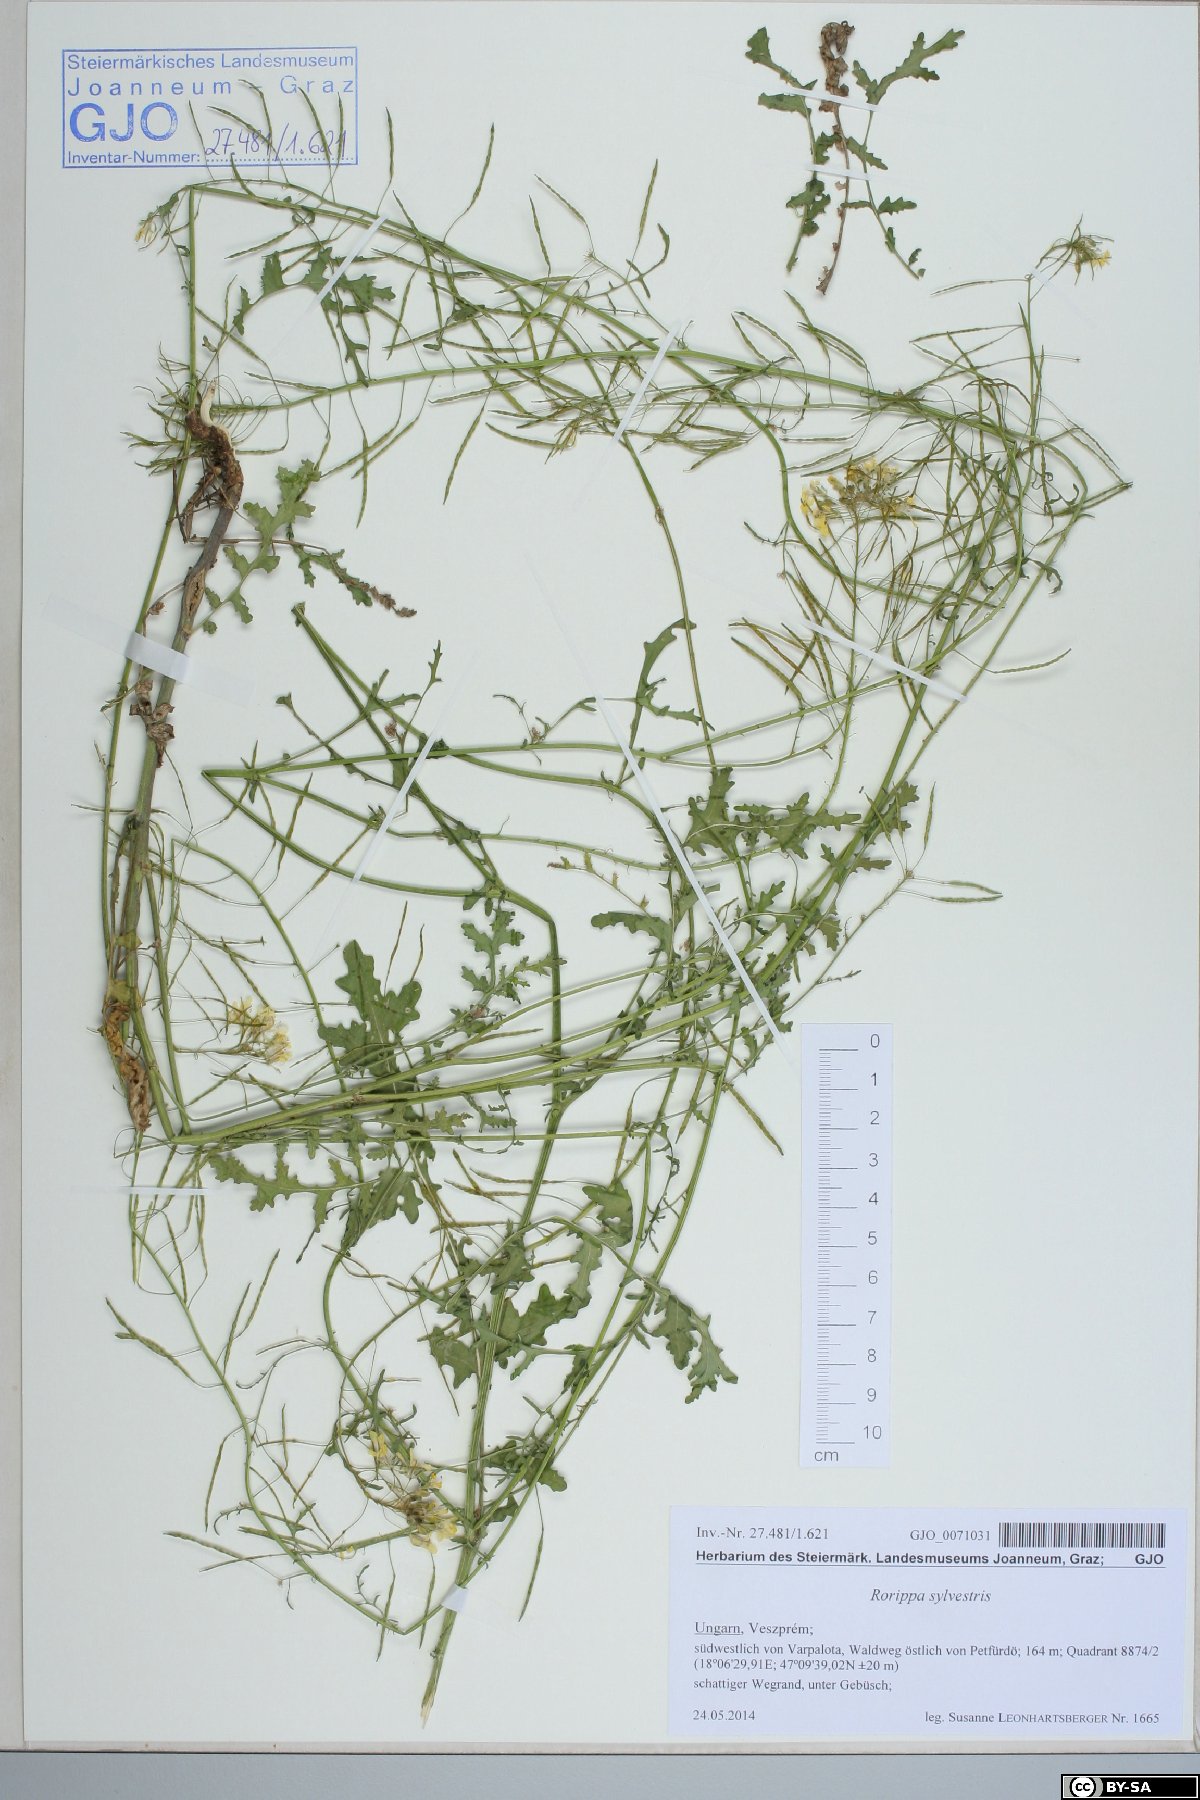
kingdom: Plantae
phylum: Tracheophyta
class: Magnoliopsida
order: Brassicales
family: Brassicaceae
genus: Rorippa
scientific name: Rorippa sylvestris
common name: Creeping yellowcress
